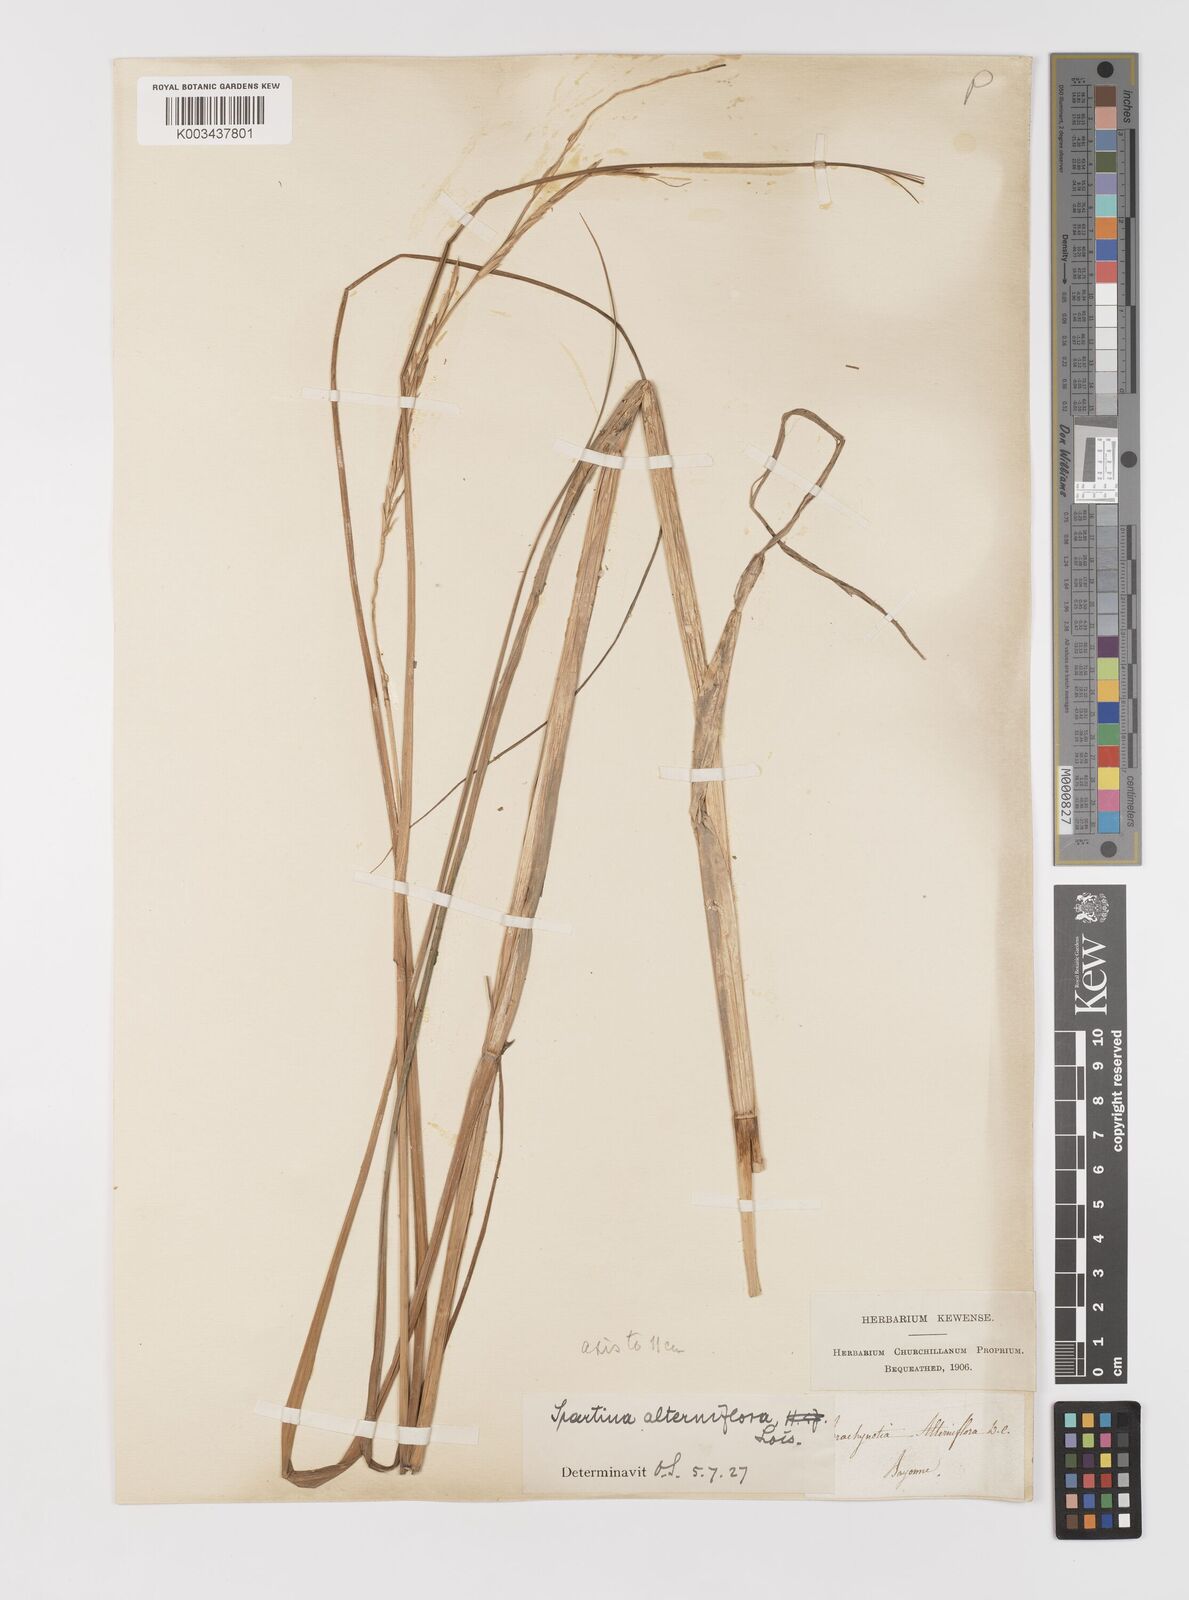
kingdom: Plantae
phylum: Tracheophyta
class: Liliopsida
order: Poales
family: Poaceae
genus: Sporobolus
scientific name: Sporobolus alterniflorus
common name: Atlantic cordgrass
